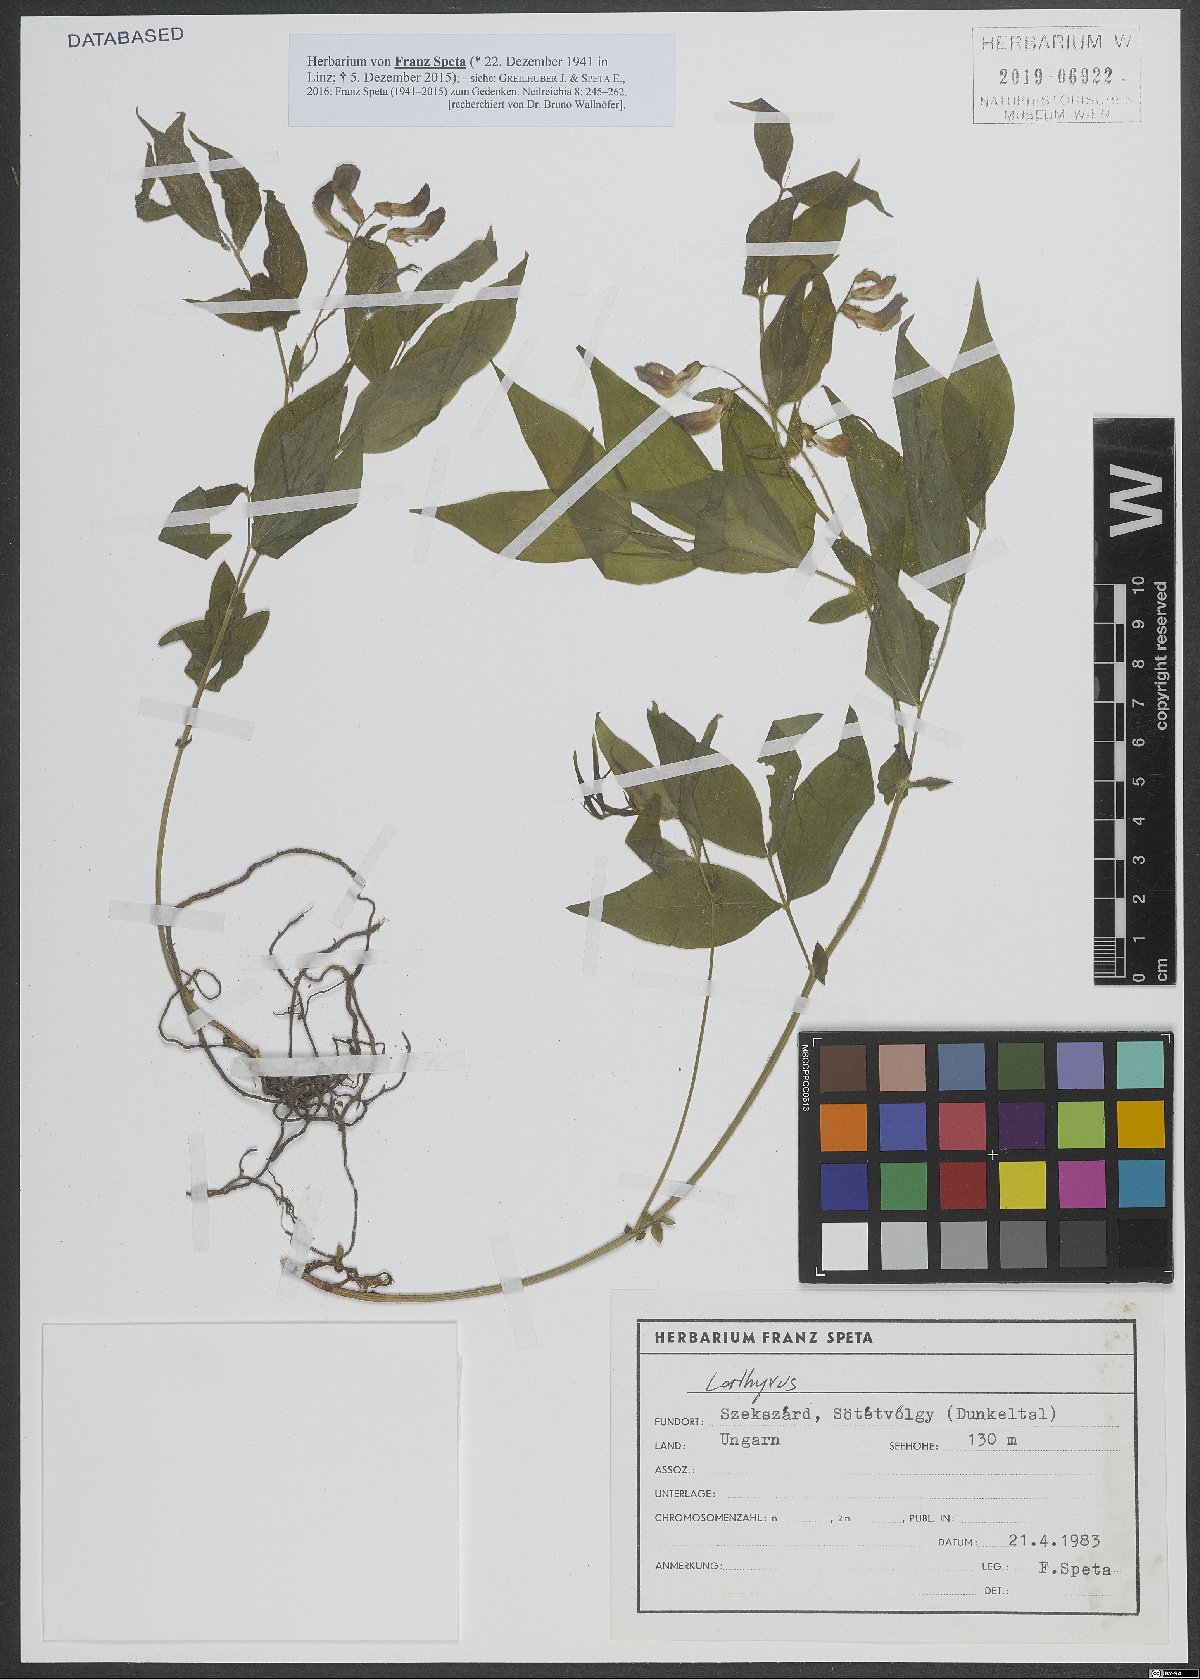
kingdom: Plantae
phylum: Tracheophyta
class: Magnoliopsida
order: Fabales
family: Fabaceae
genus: Lathyrus
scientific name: Lathyrus
